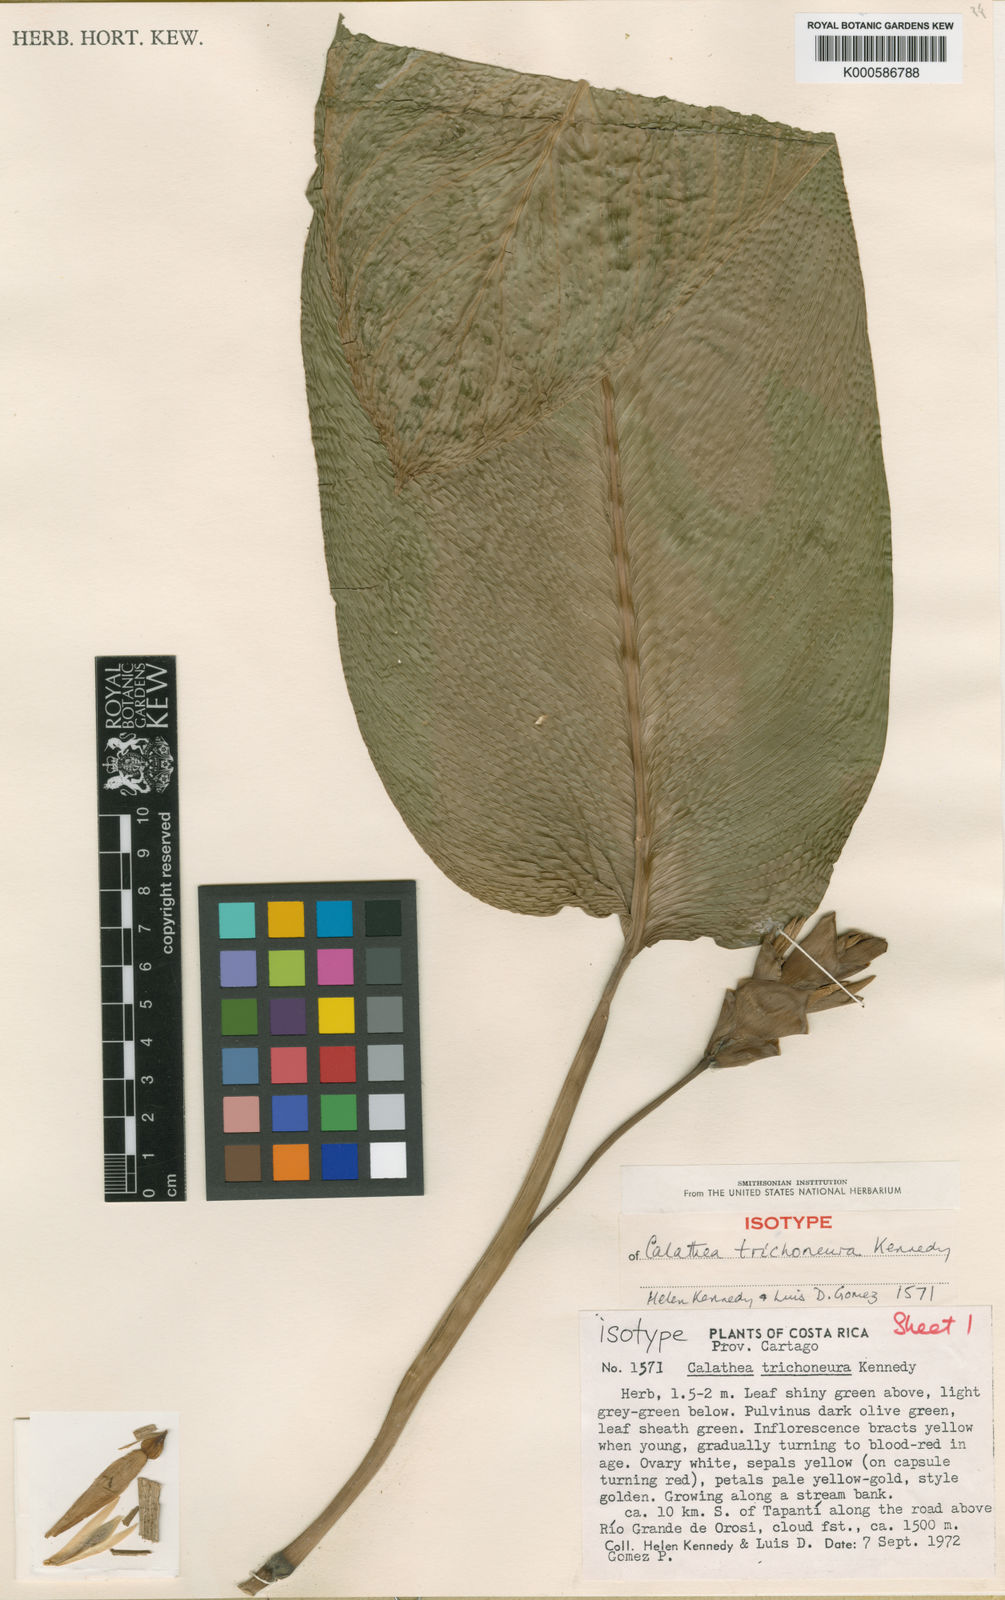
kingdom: Plantae
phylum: Tracheophyta
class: Liliopsida
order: Zingiberales
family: Marantaceae
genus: Goeppertia
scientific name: Goeppertia trichoneura
